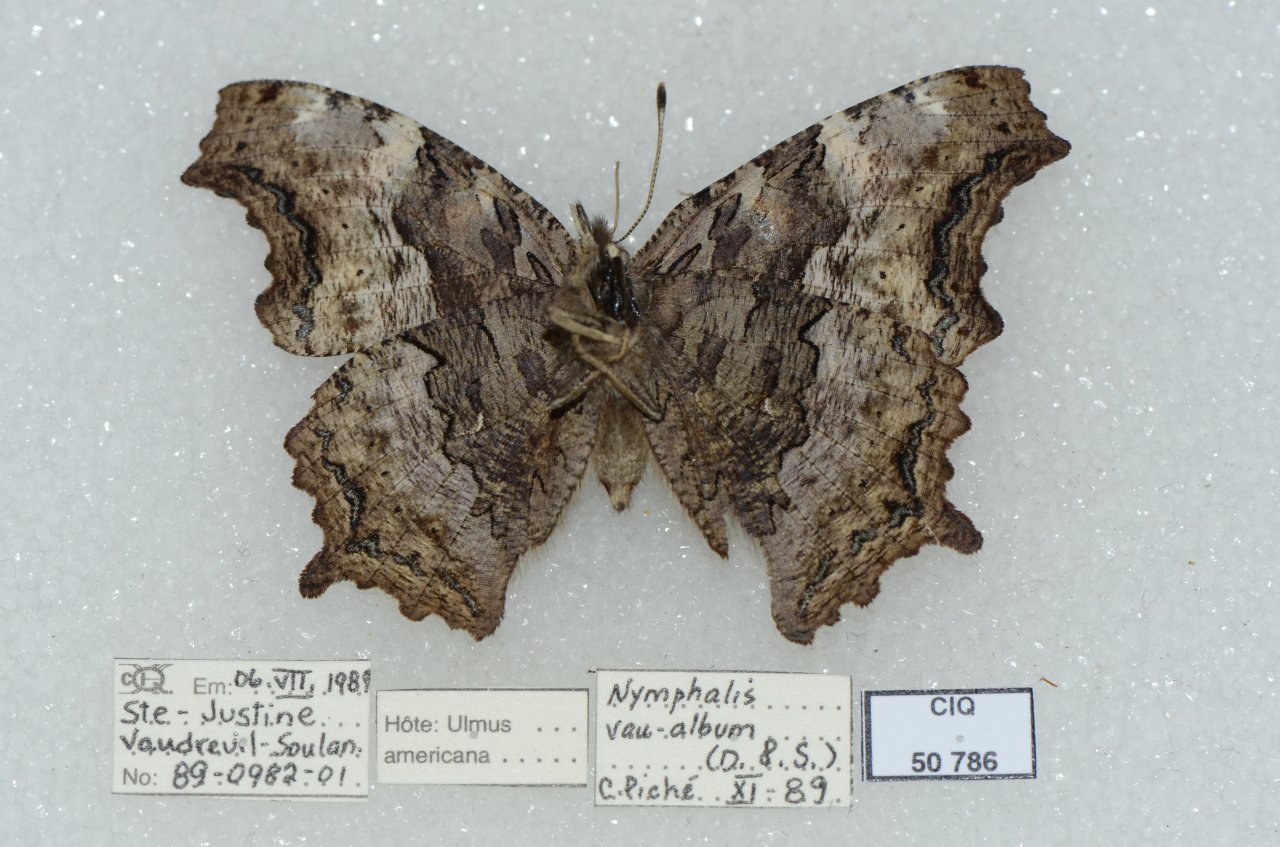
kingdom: Animalia
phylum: Arthropoda
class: Insecta
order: Lepidoptera
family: Nymphalidae
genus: Polygonia
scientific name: Polygonia vaualbum
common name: Compton Tortoiseshell
